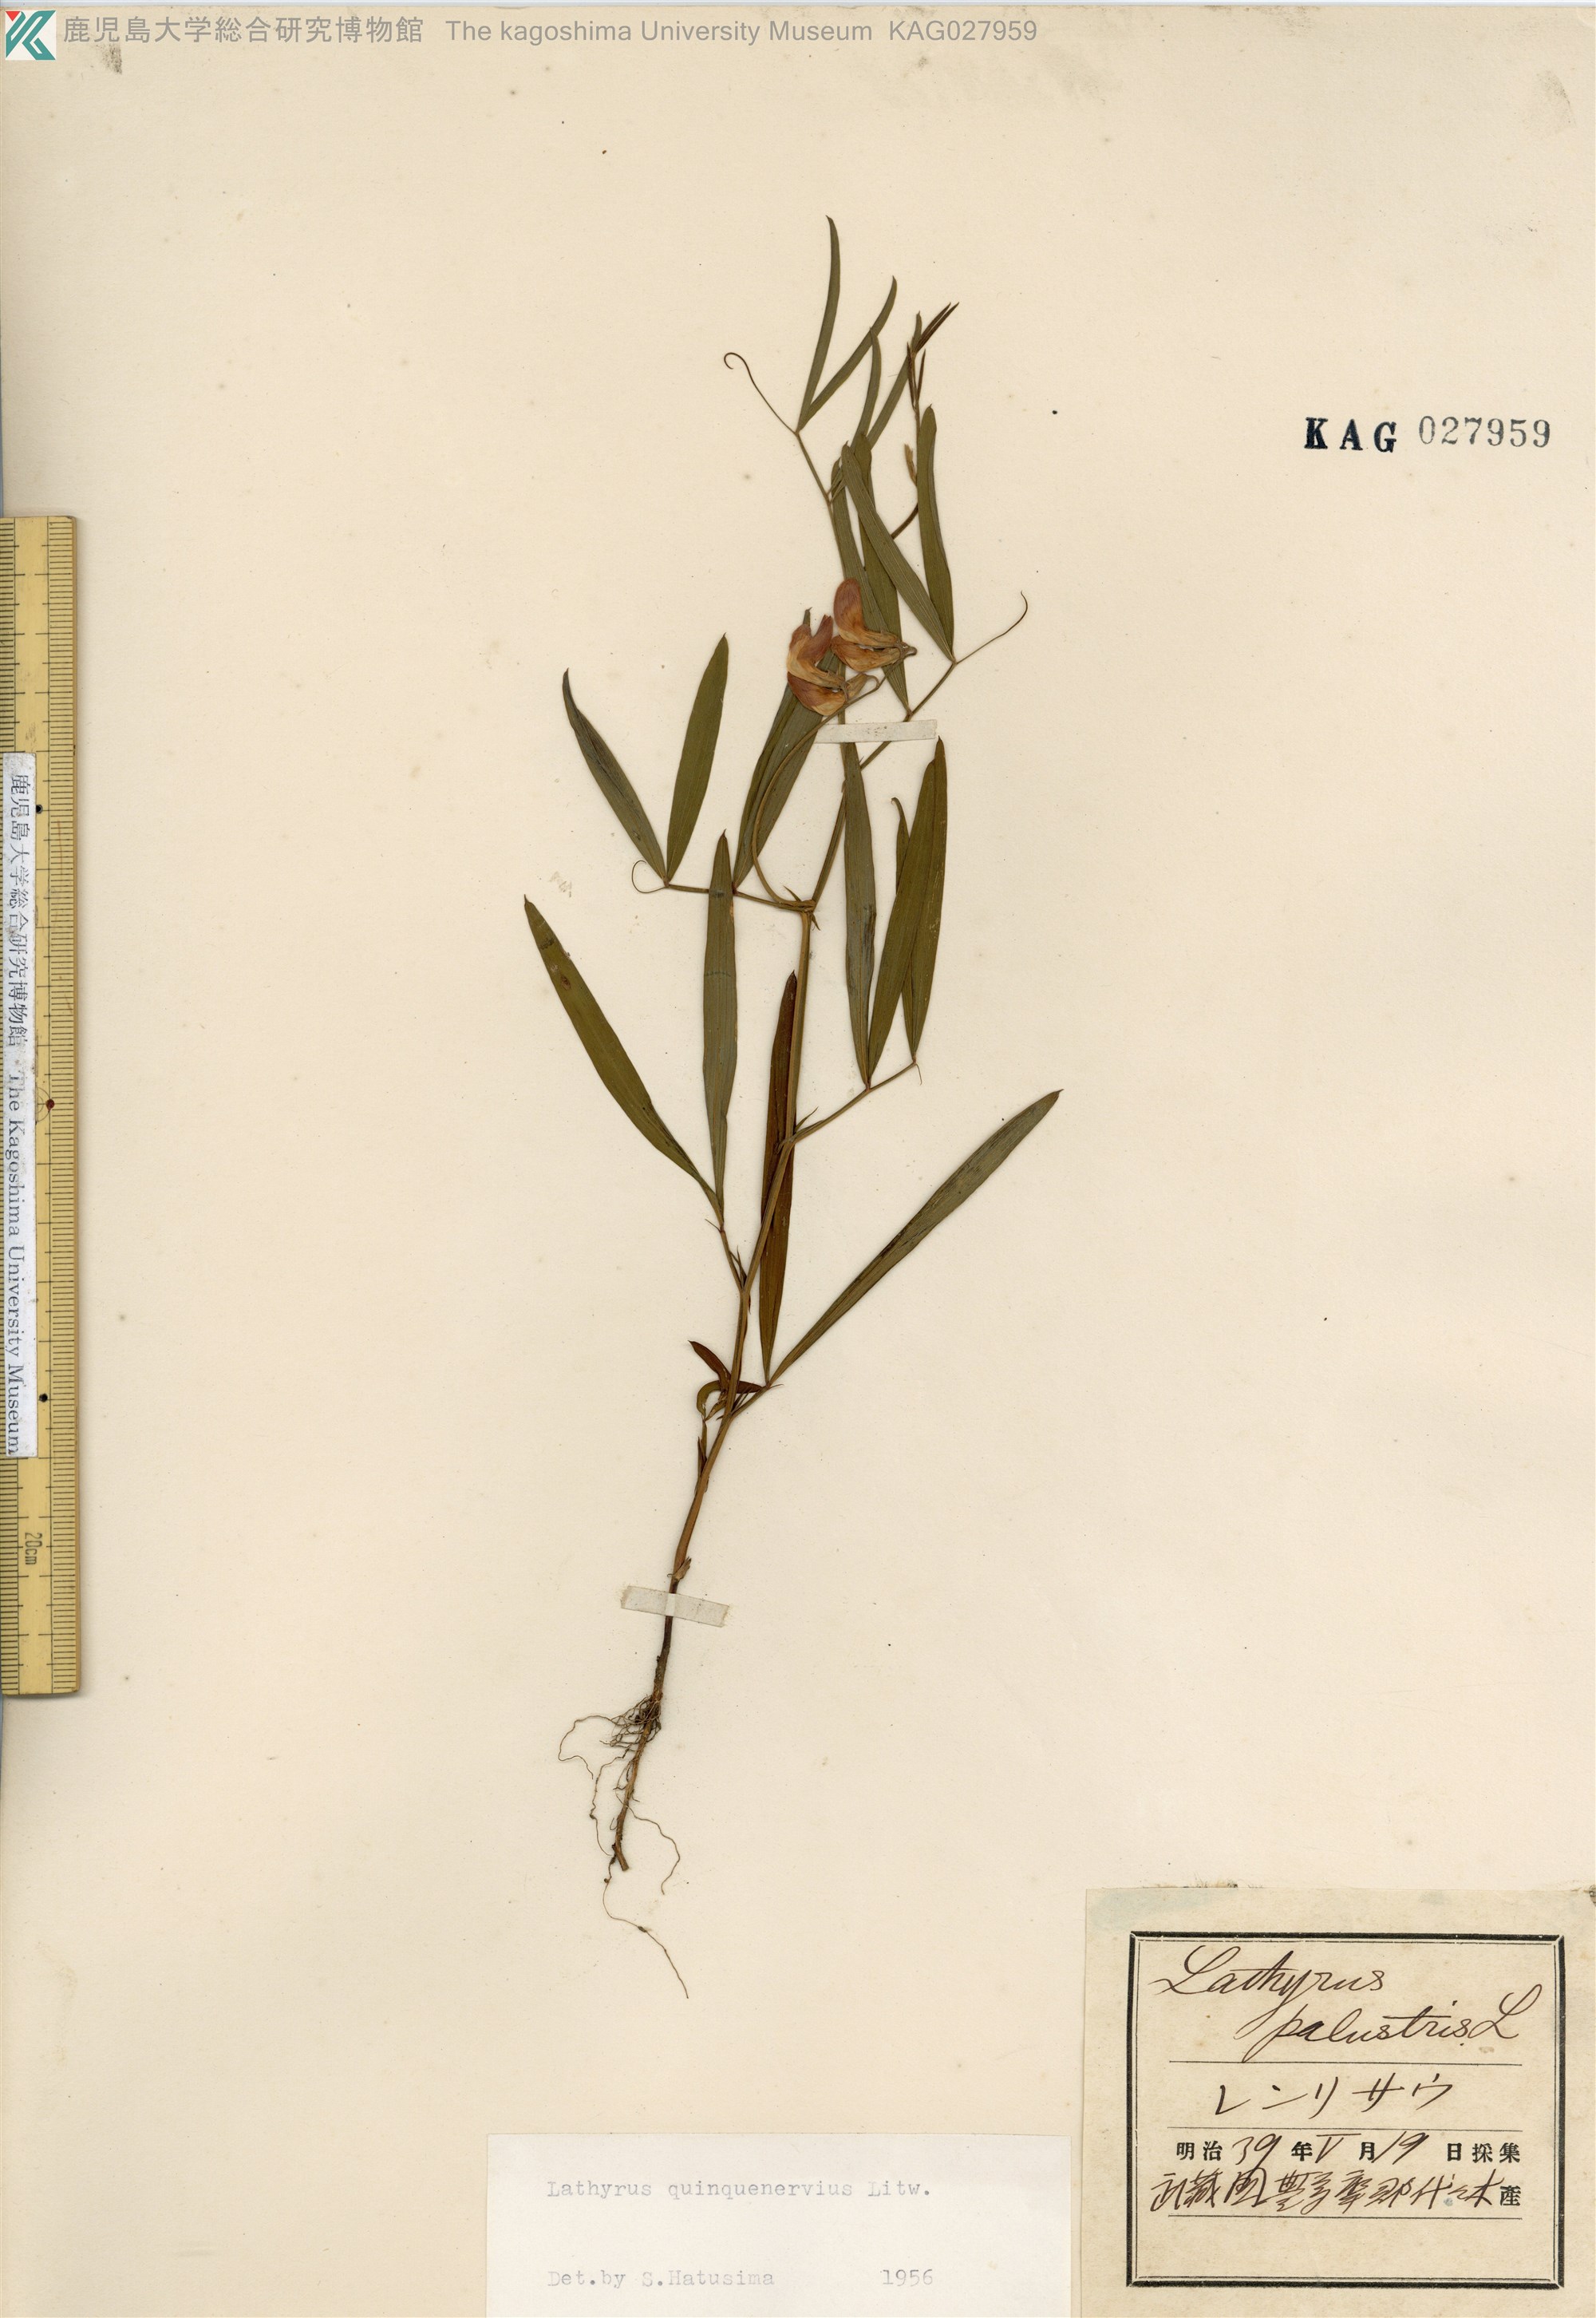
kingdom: Plantae
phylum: Tracheophyta
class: Magnoliopsida
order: Fabales
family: Fabaceae
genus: Lathyrus
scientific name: Lathyrus quinquenervius
